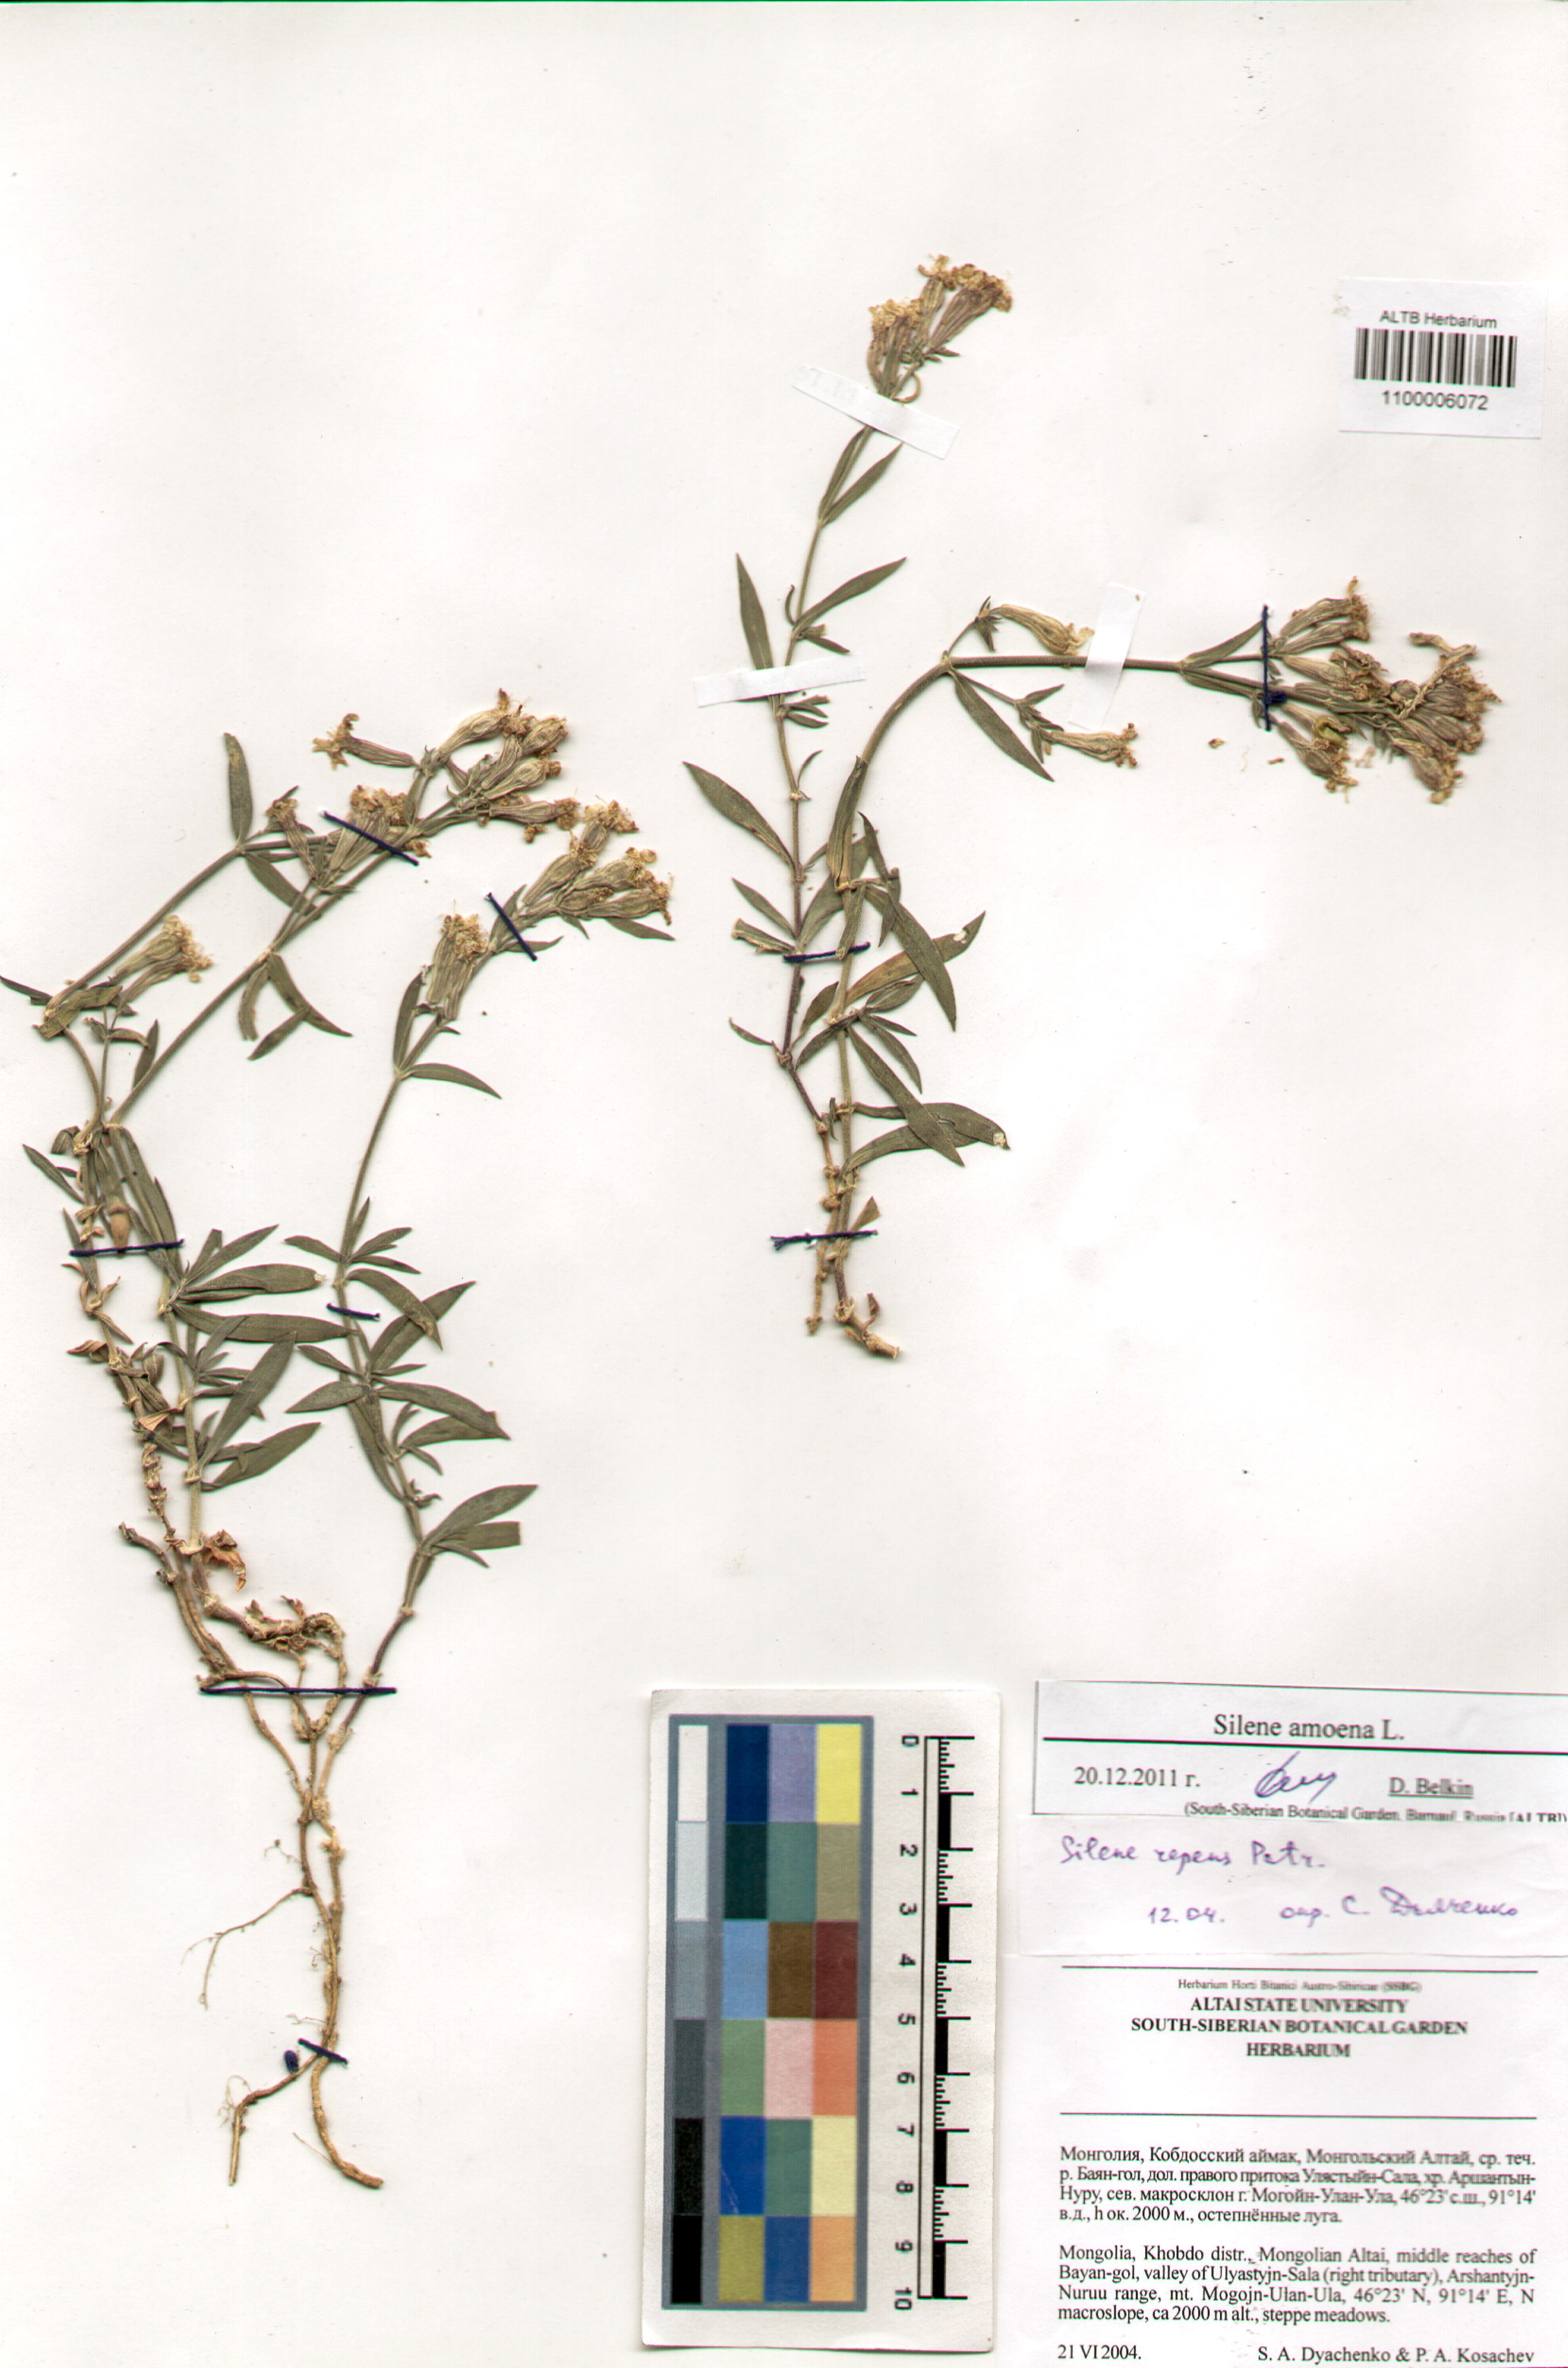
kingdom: Plantae
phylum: Tracheophyta
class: Magnoliopsida
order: Caryophyllales
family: Caryophyllaceae
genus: Silene
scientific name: Silene amoena
